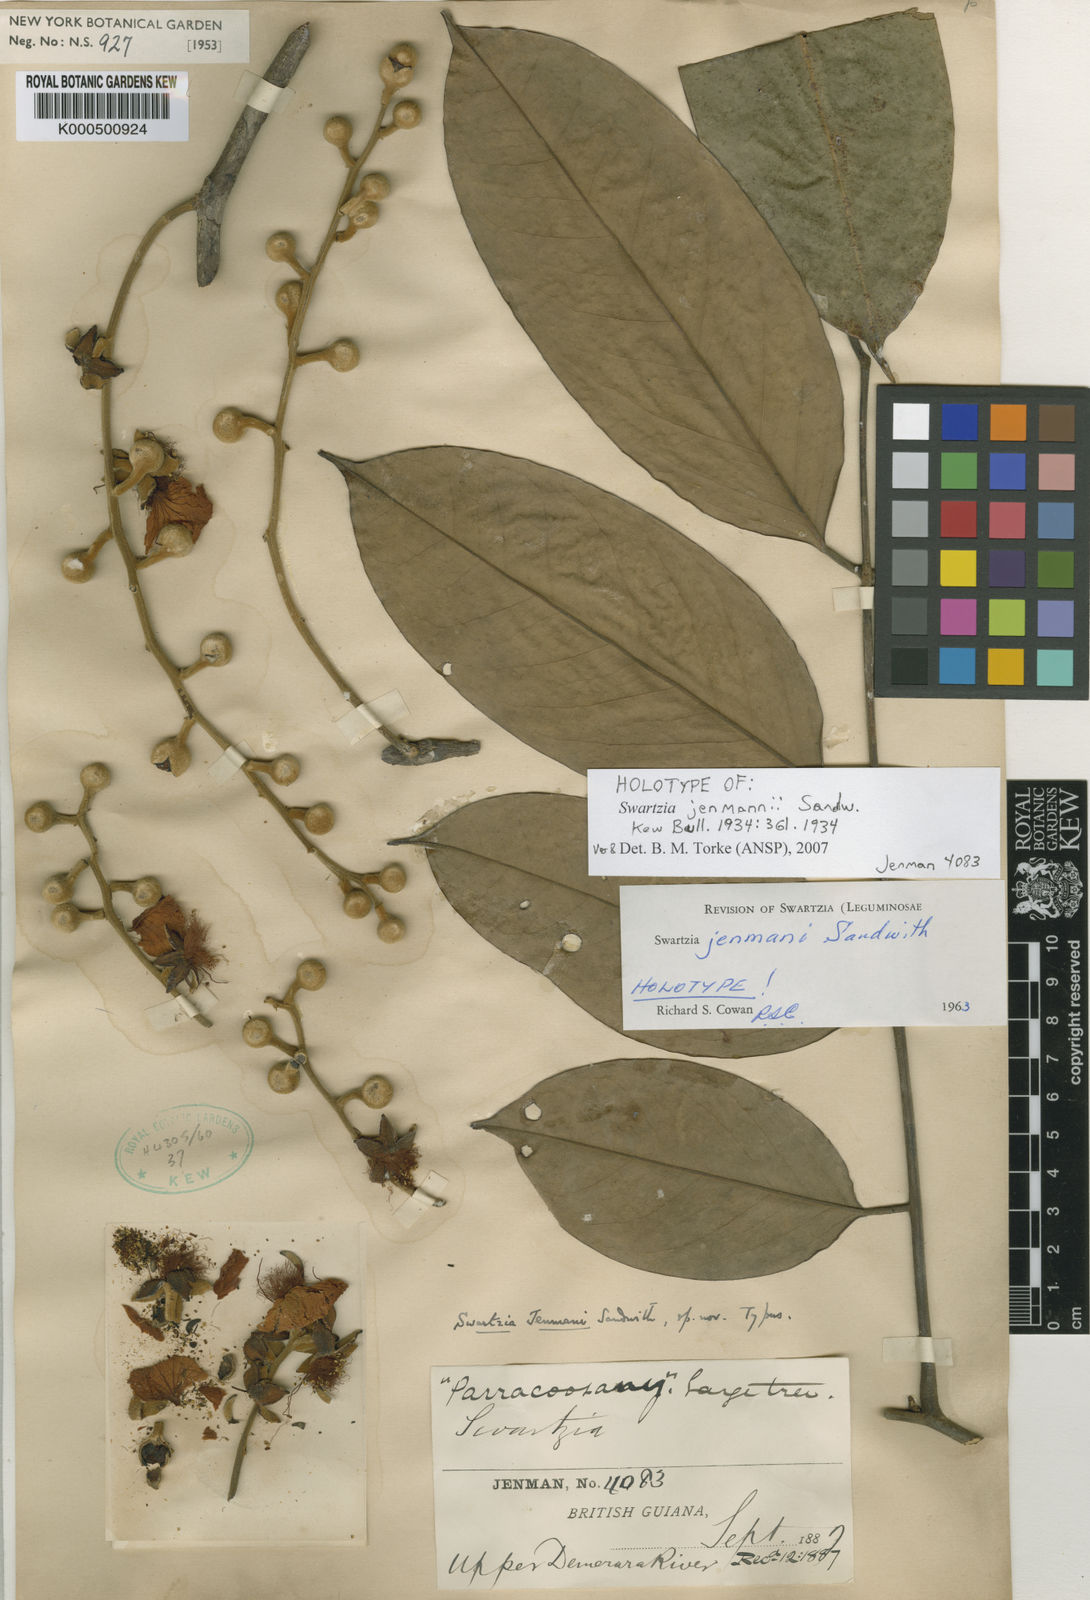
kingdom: Plantae
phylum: Tracheophyta
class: Magnoliopsida
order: Fabales
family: Fabaceae
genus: Swartzia
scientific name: Swartzia jenmanii
